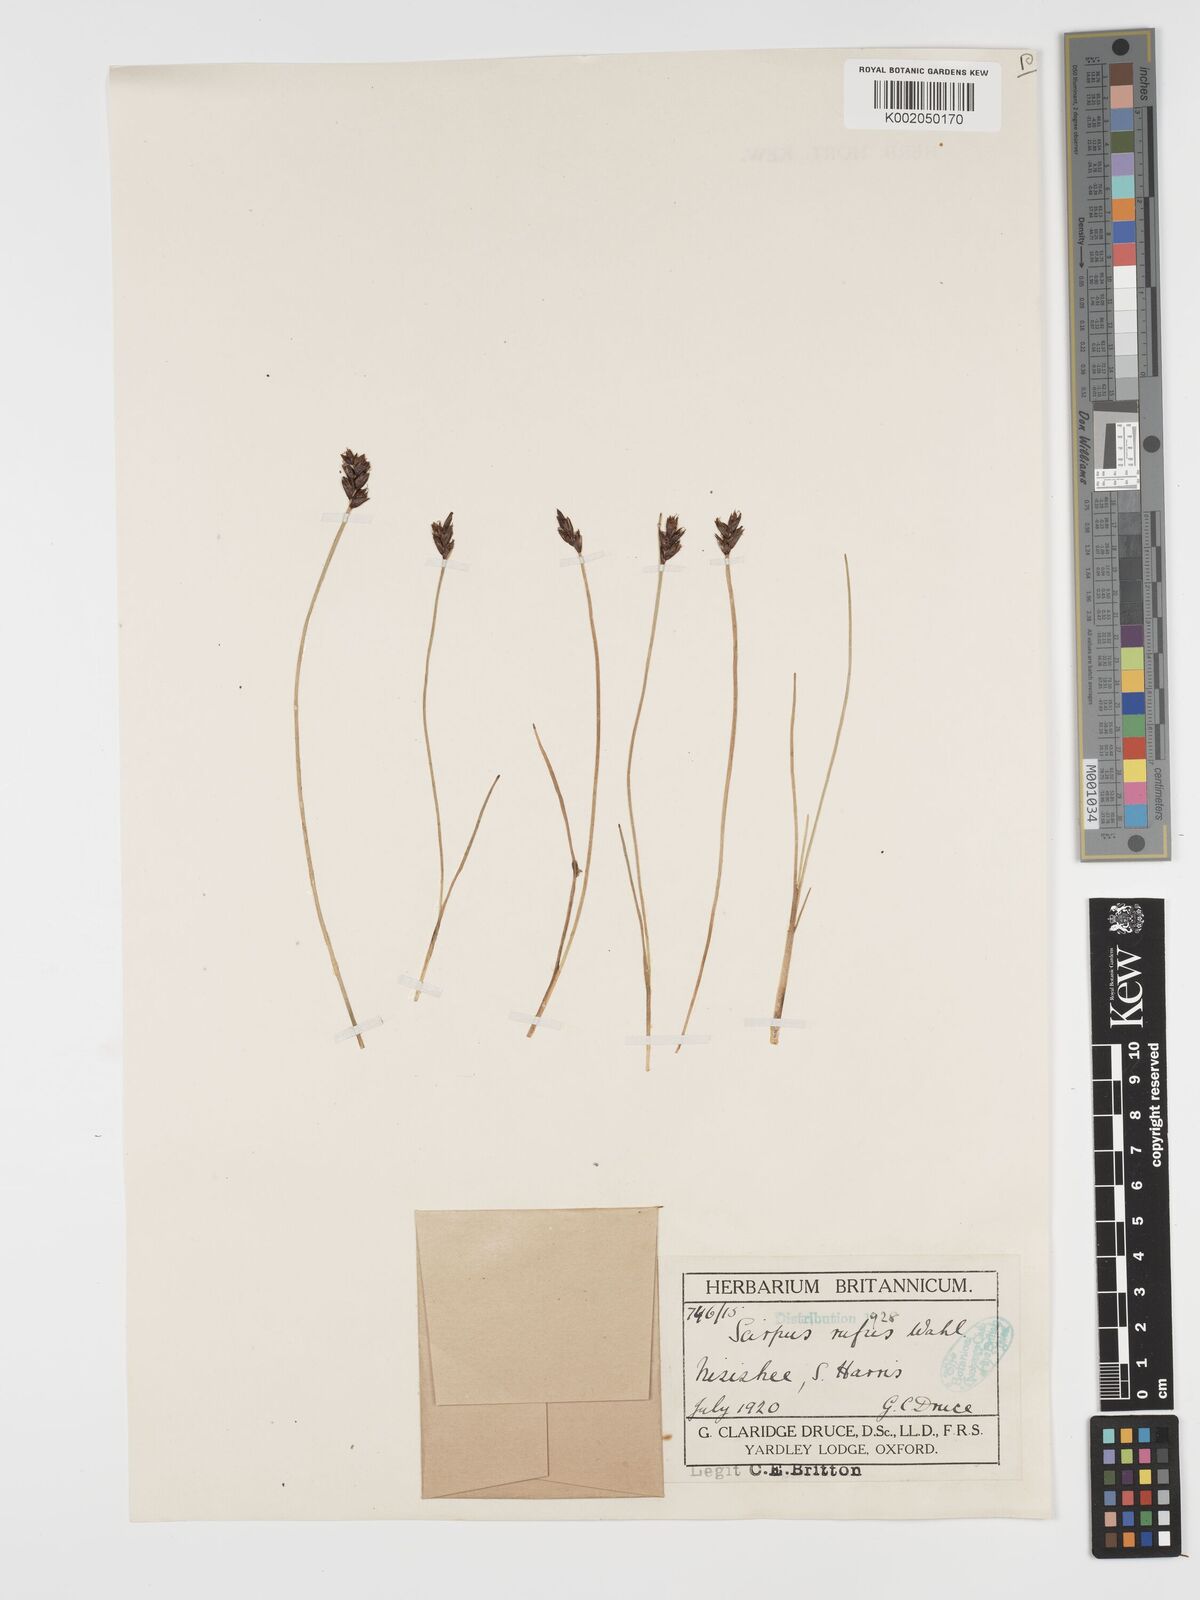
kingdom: Plantae
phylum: Tracheophyta
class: Liliopsida
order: Poales
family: Cyperaceae
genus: Blysmus
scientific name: Blysmus rufus
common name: Saltmarsh flat-sedge
